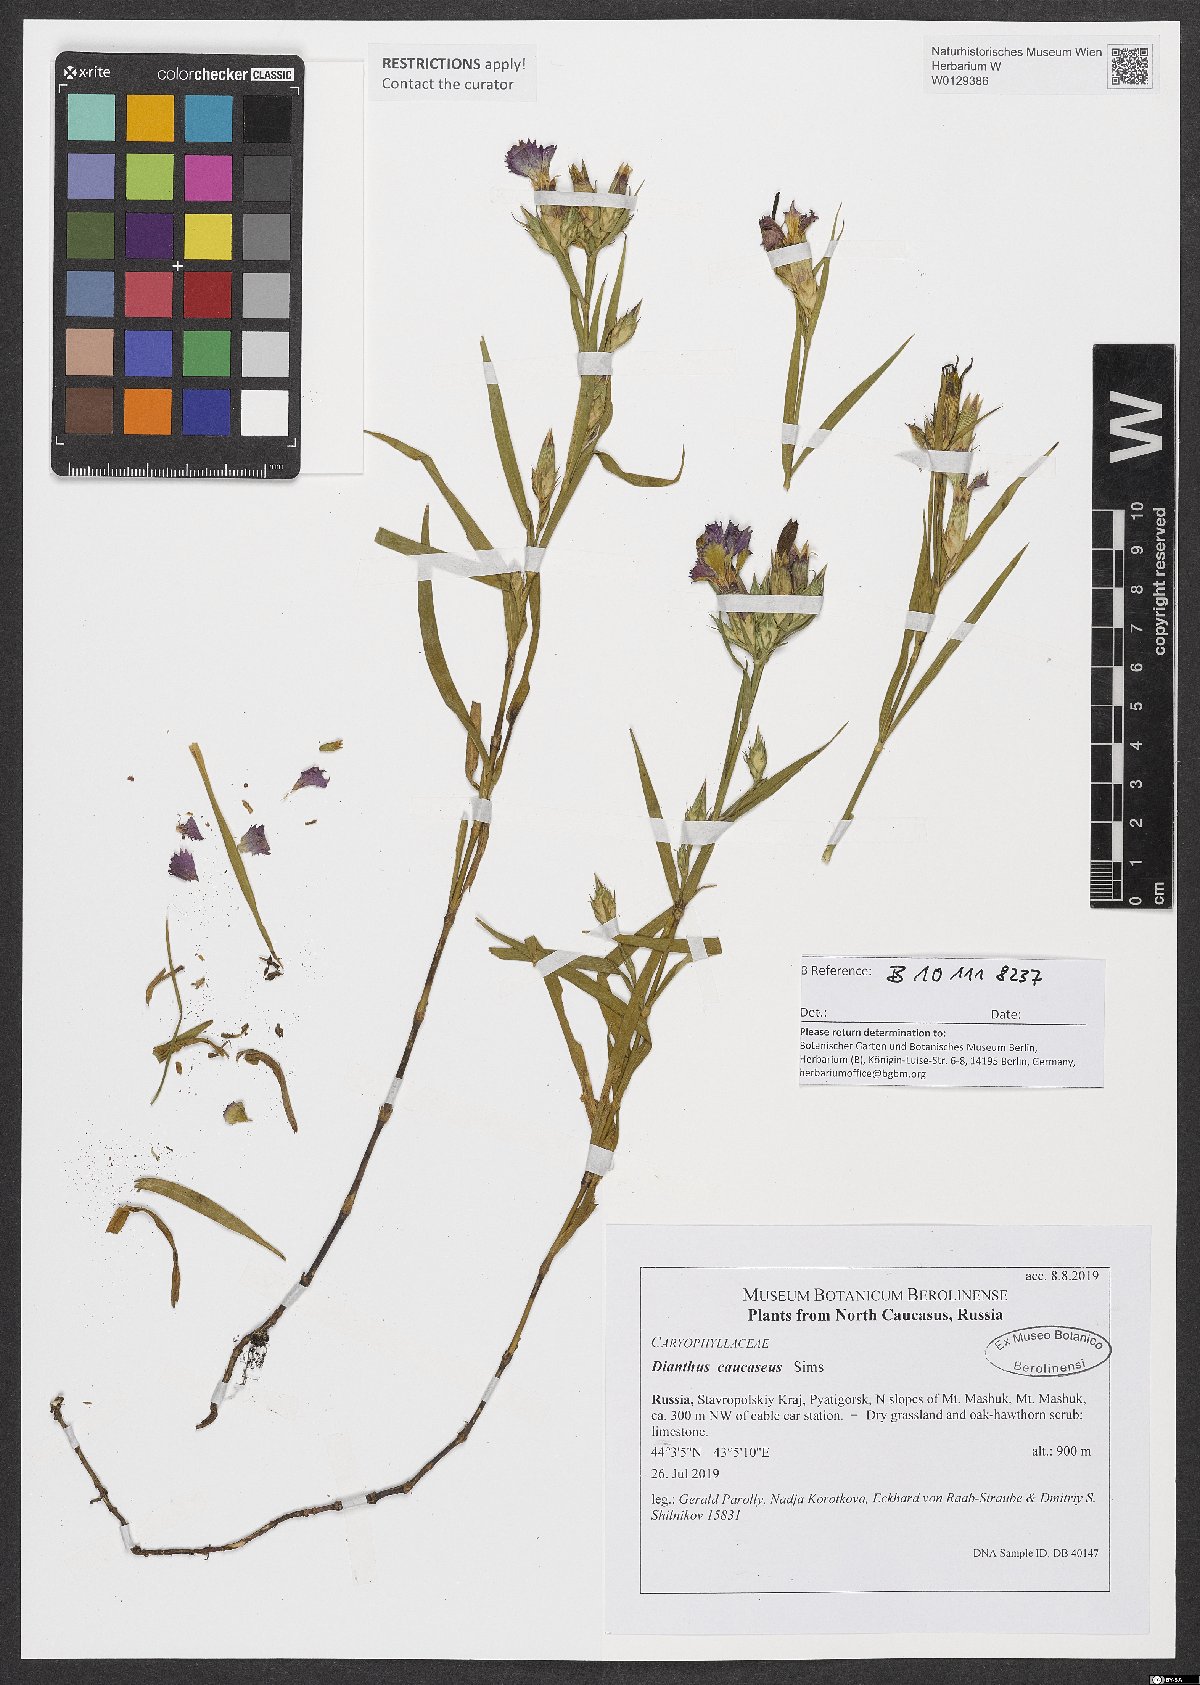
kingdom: Plantae
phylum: Tracheophyta
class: Magnoliopsida
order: Caryophyllales
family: Caryophyllaceae
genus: Dianthus
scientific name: Dianthus caucaseus
